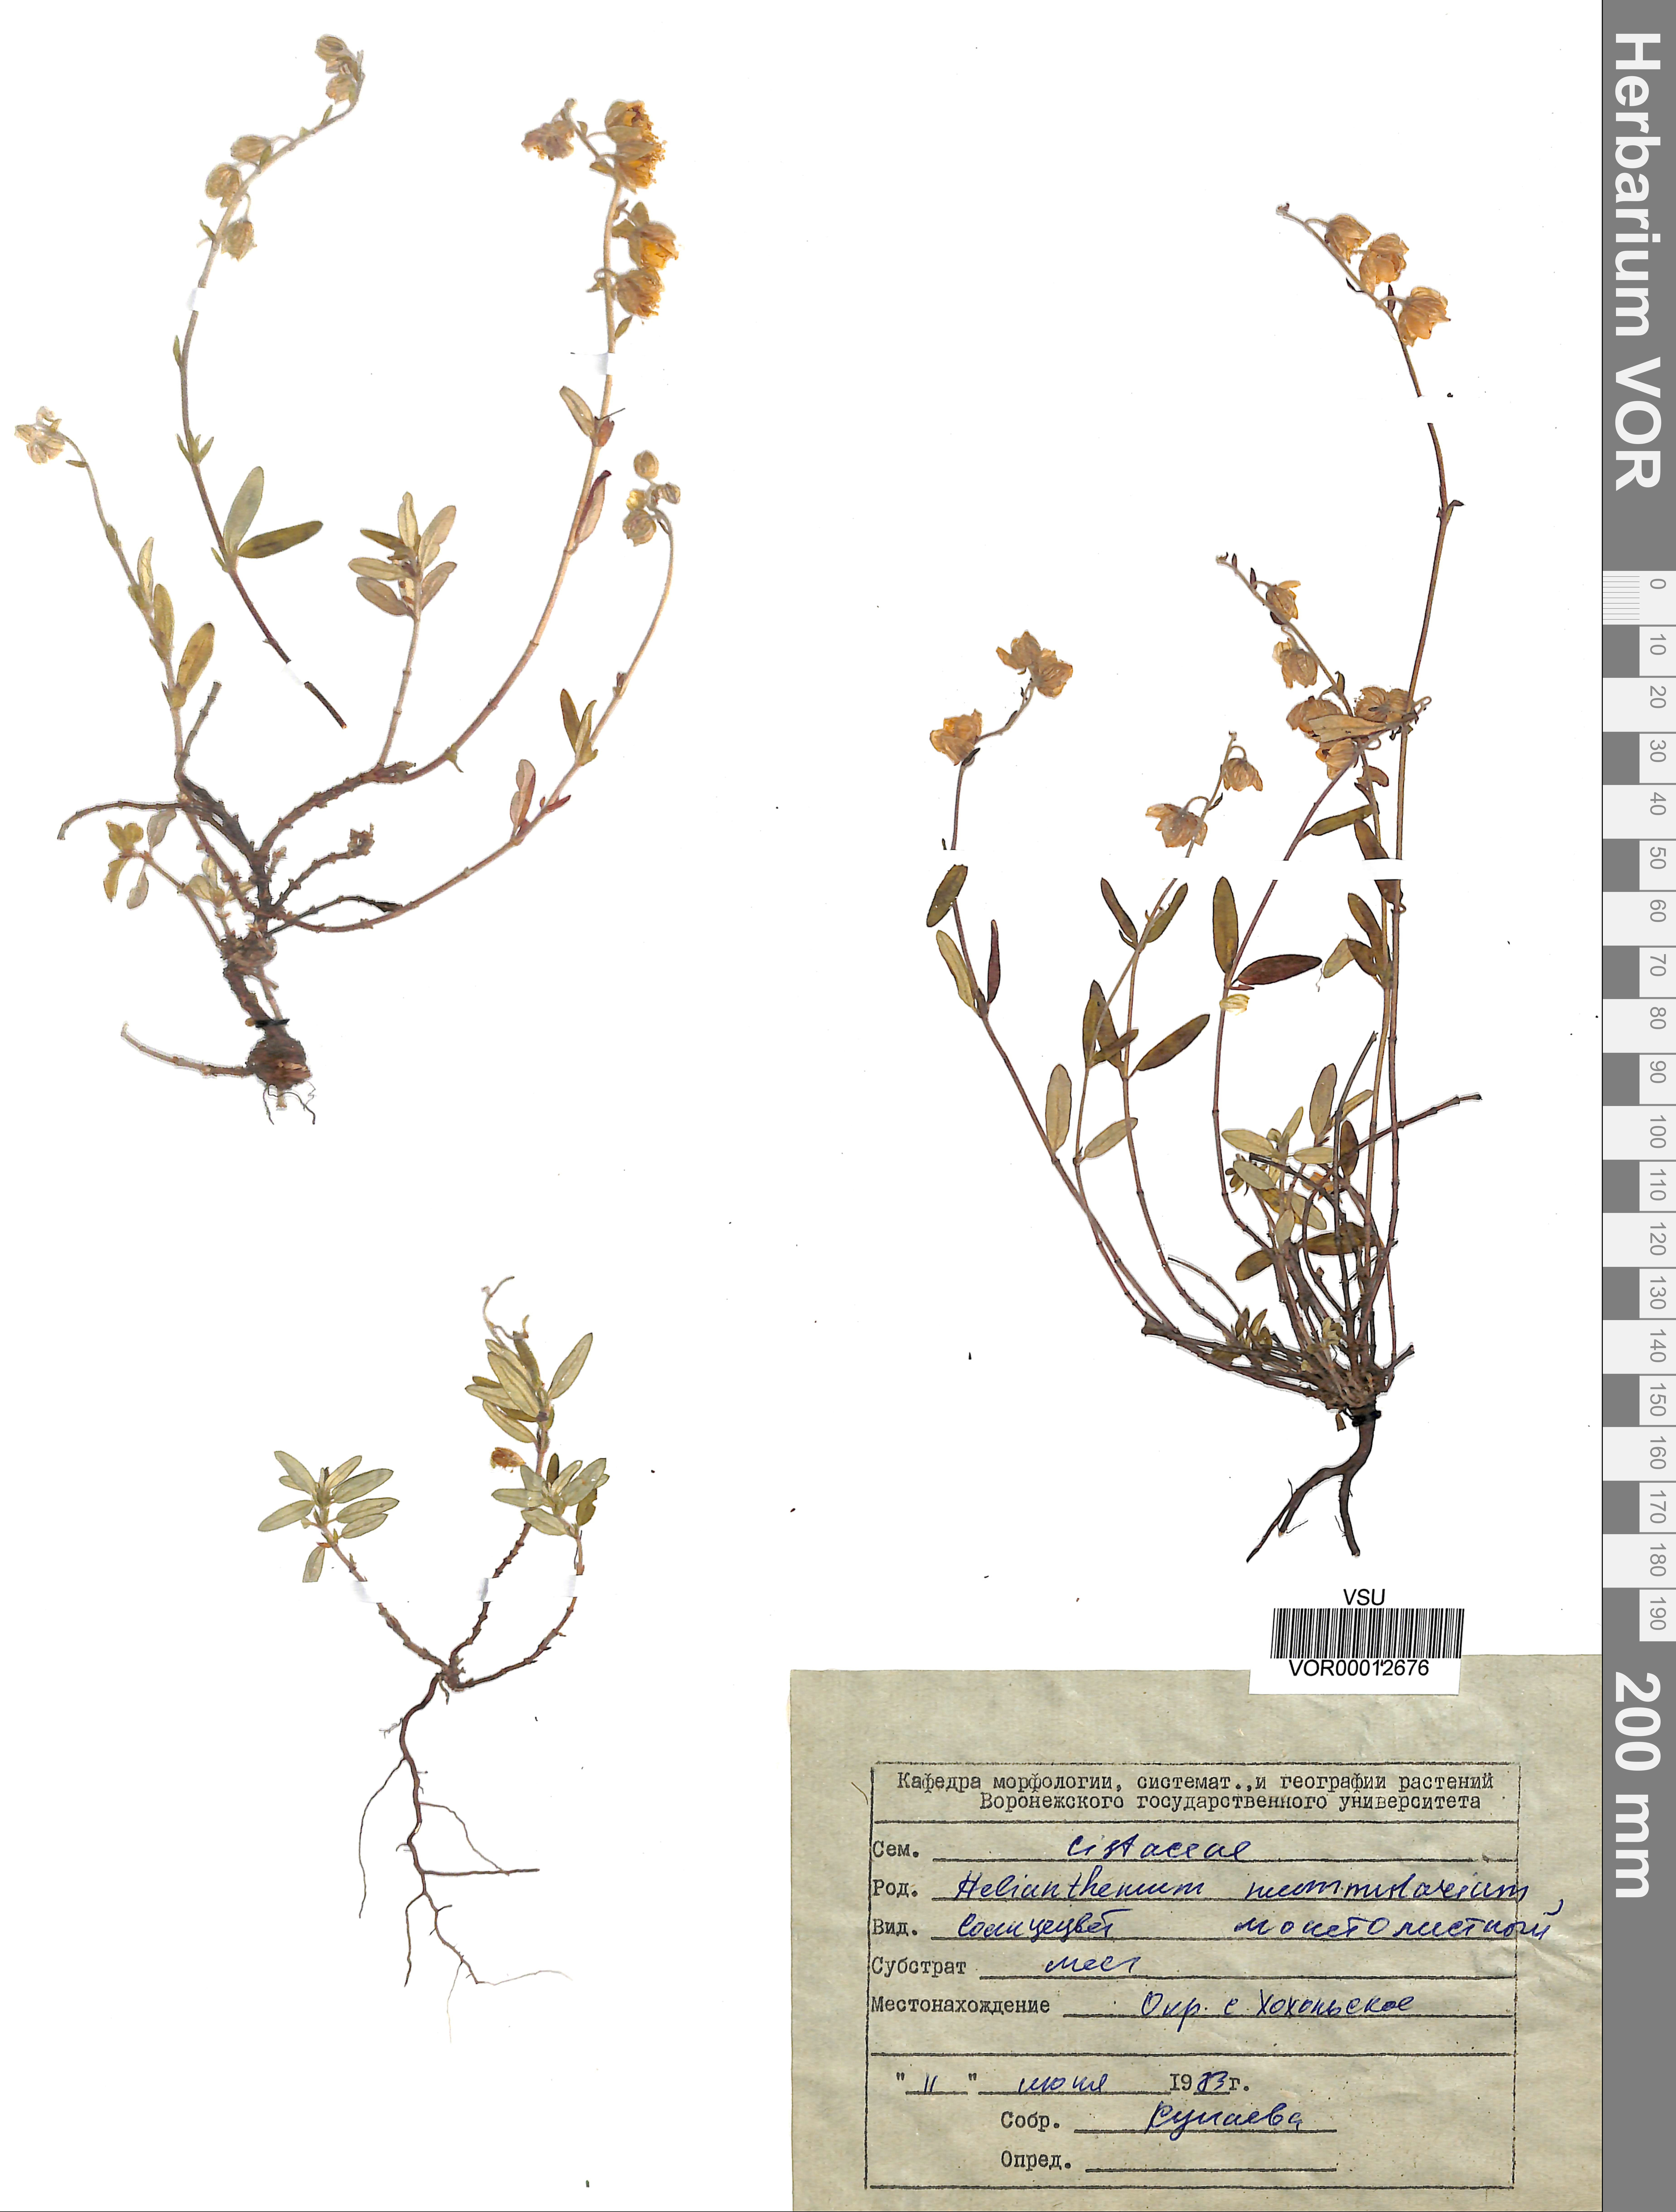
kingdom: Plantae
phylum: Tracheophyta
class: Magnoliopsida
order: Malvales
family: Cistaceae
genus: Helianthemum
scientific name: Helianthemum nummularium
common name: Common rock-rose
